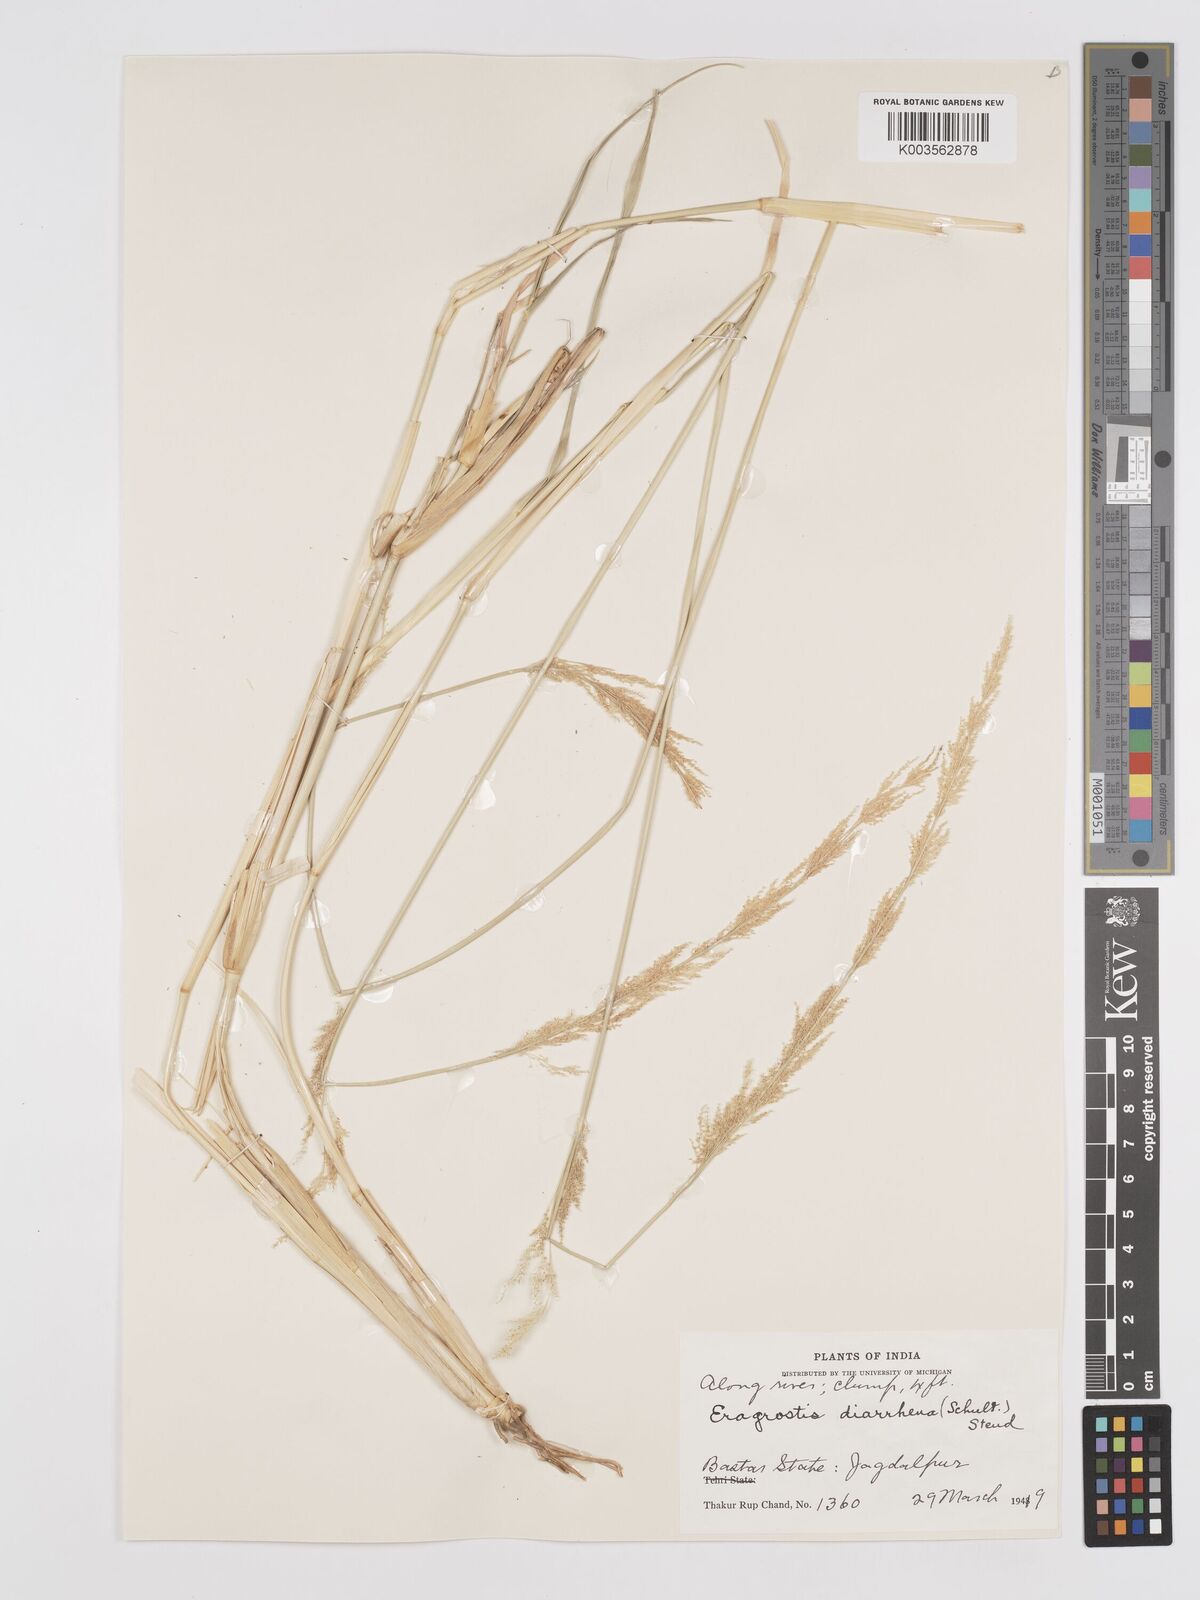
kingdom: Plantae
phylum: Tracheophyta
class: Liliopsida
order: Poales
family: Poaceae
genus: Eragrostis
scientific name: Eragrostis japonica
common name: Pond lovegrass
